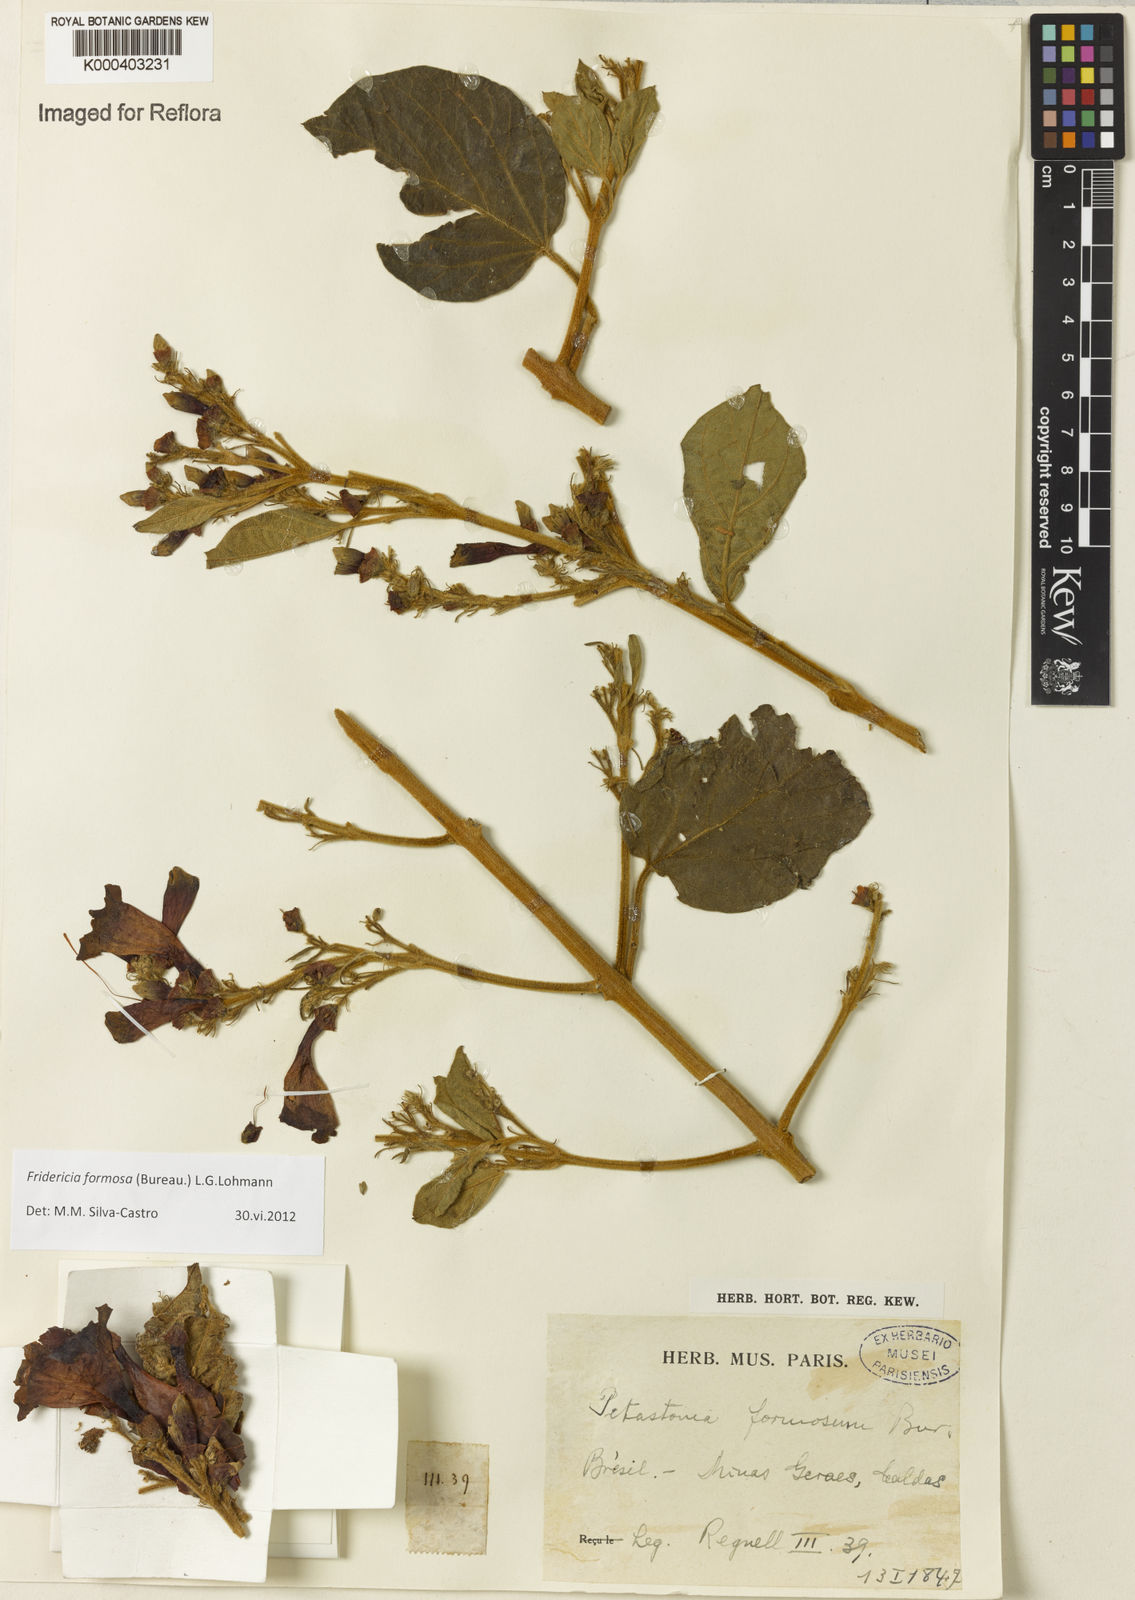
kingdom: Plantae
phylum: Tracheophyta
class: Magnoliopsida
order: Lamiales
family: Bignoniaceae
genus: Fridericia
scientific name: Fridericia formosa
